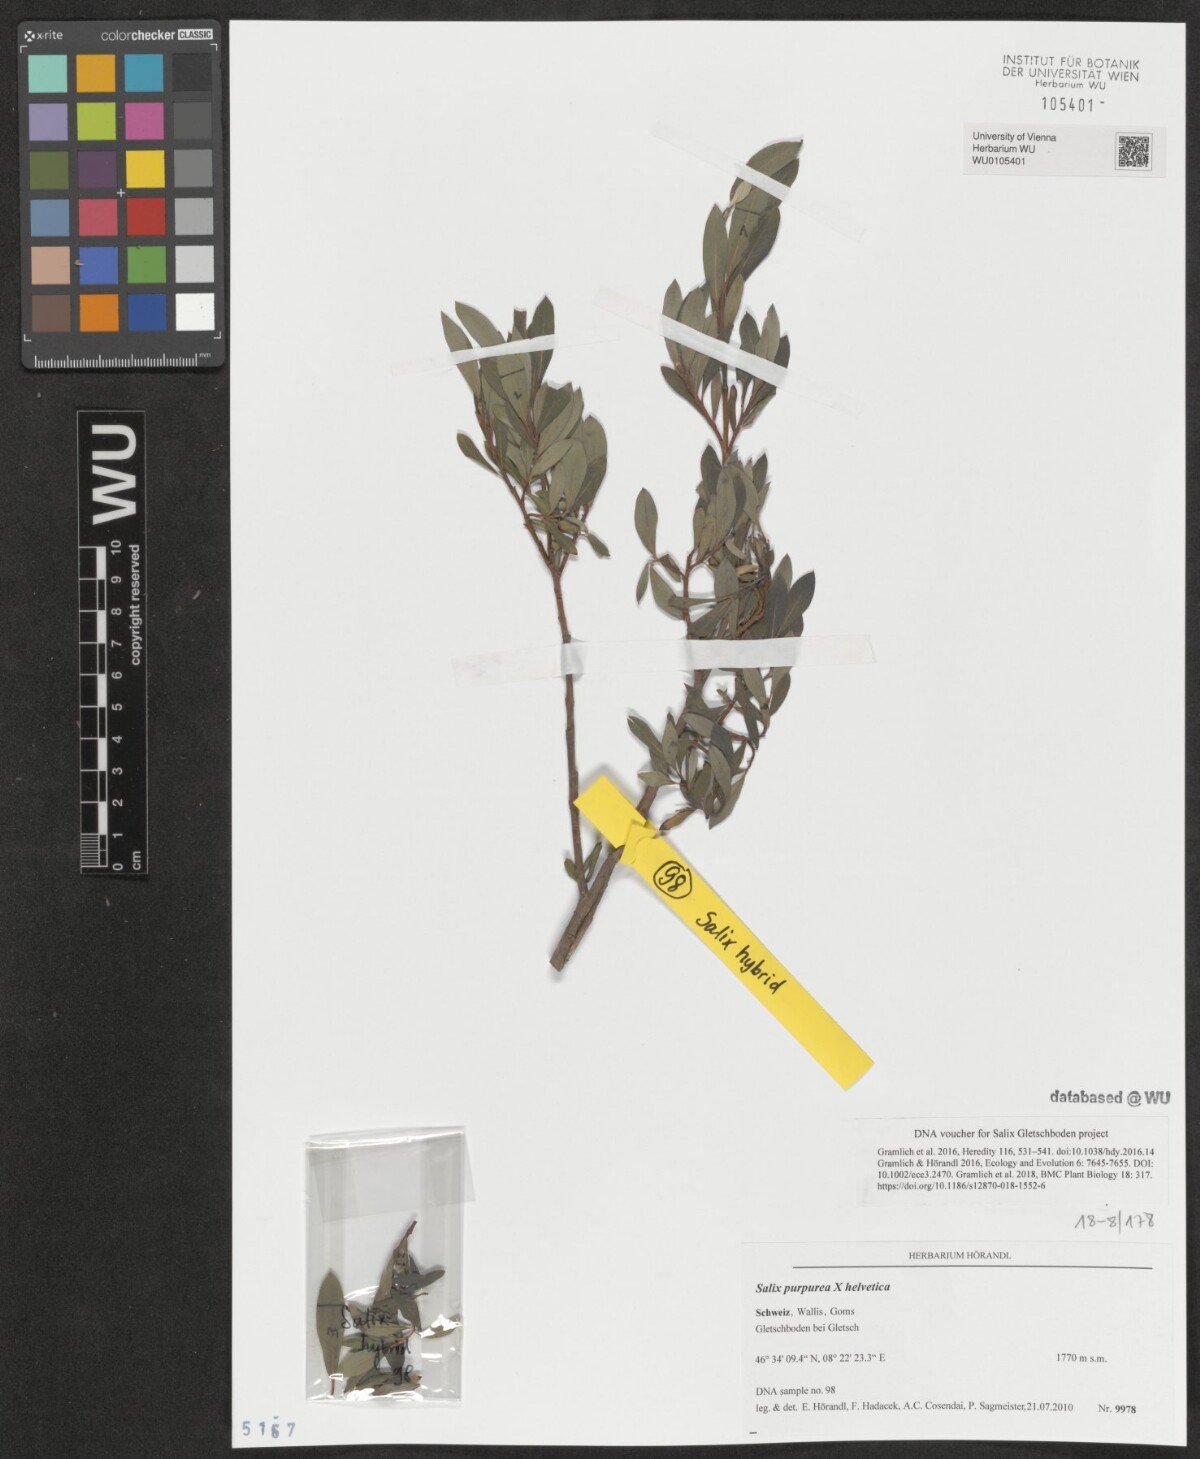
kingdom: Plantae
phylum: Tracheophyta
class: Magnoliopsida
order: Malpighiales
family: Salicaceae
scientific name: Salicaceae
